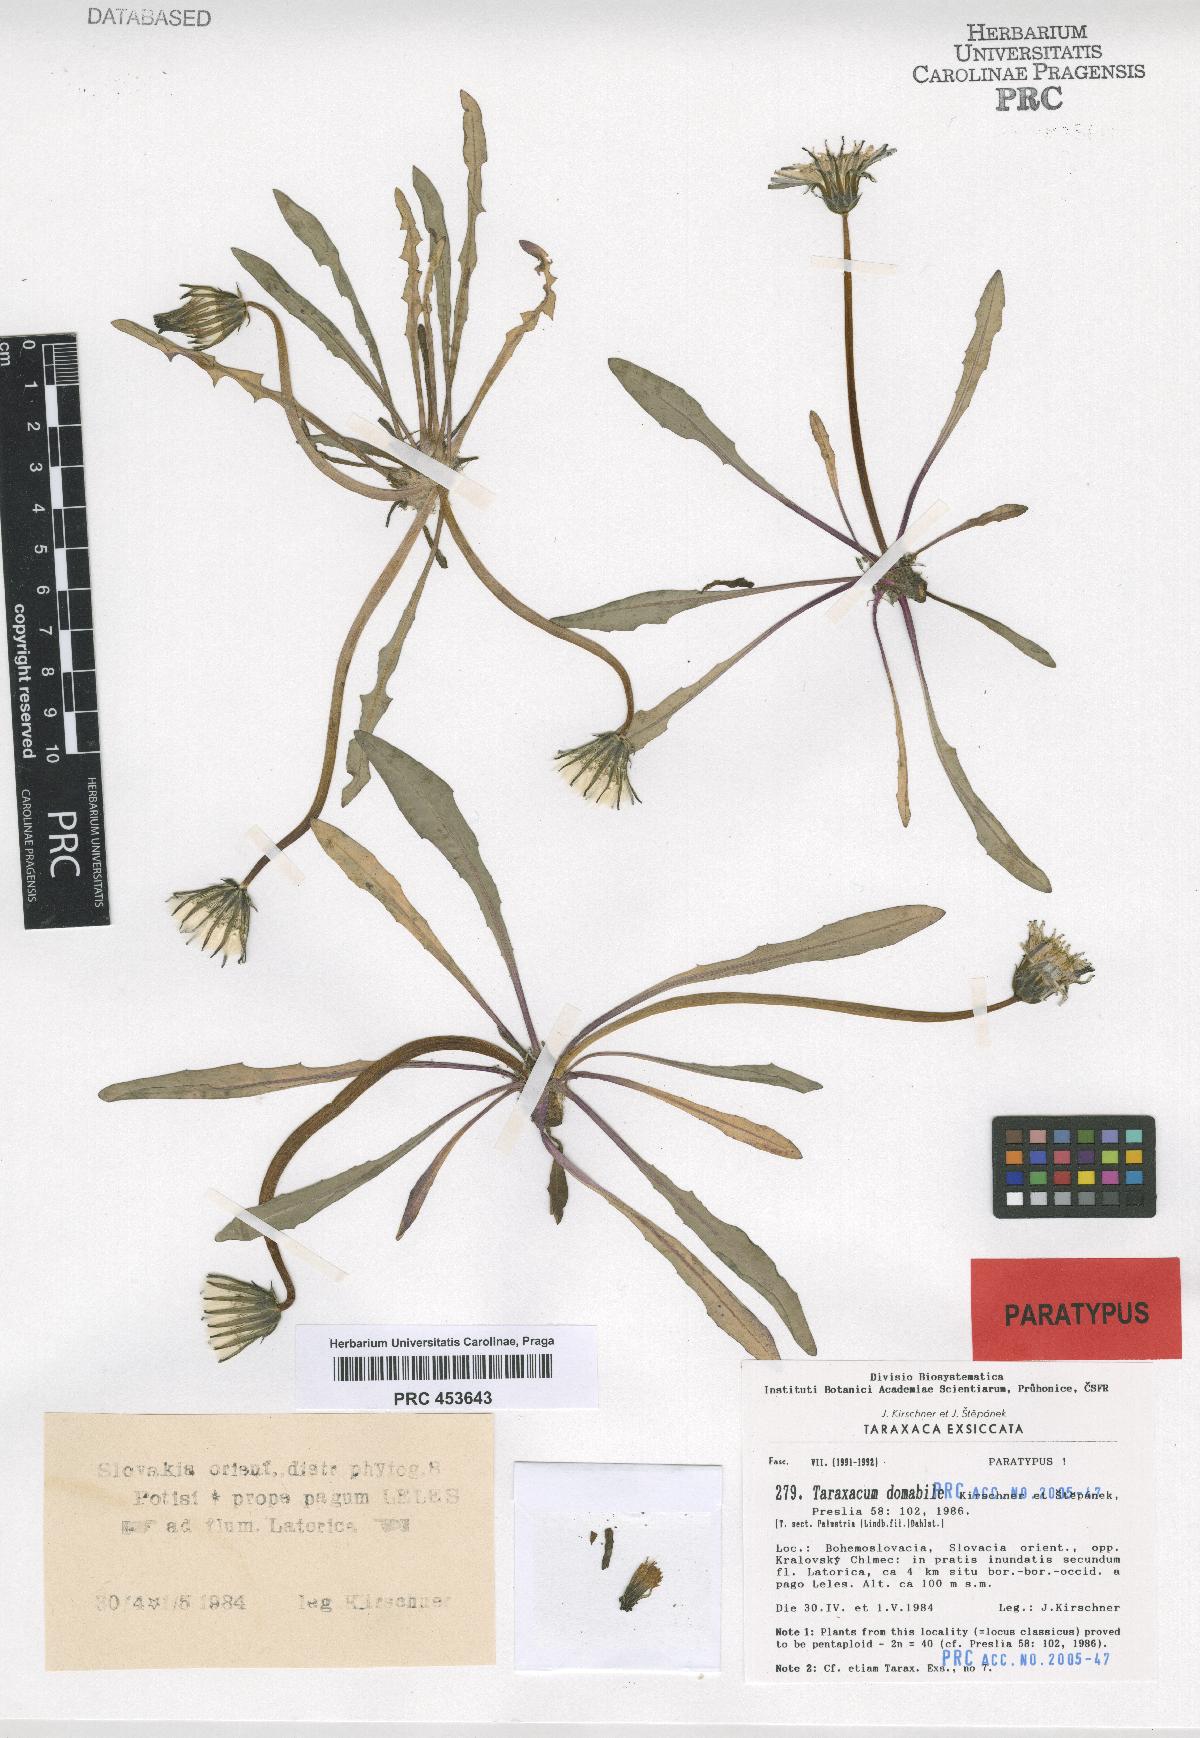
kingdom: Plantae
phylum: Tracheophyta
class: Magnoliopsida
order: Asterales
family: Asteraceae
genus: Taraxacum
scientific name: Taraxacum domabile
